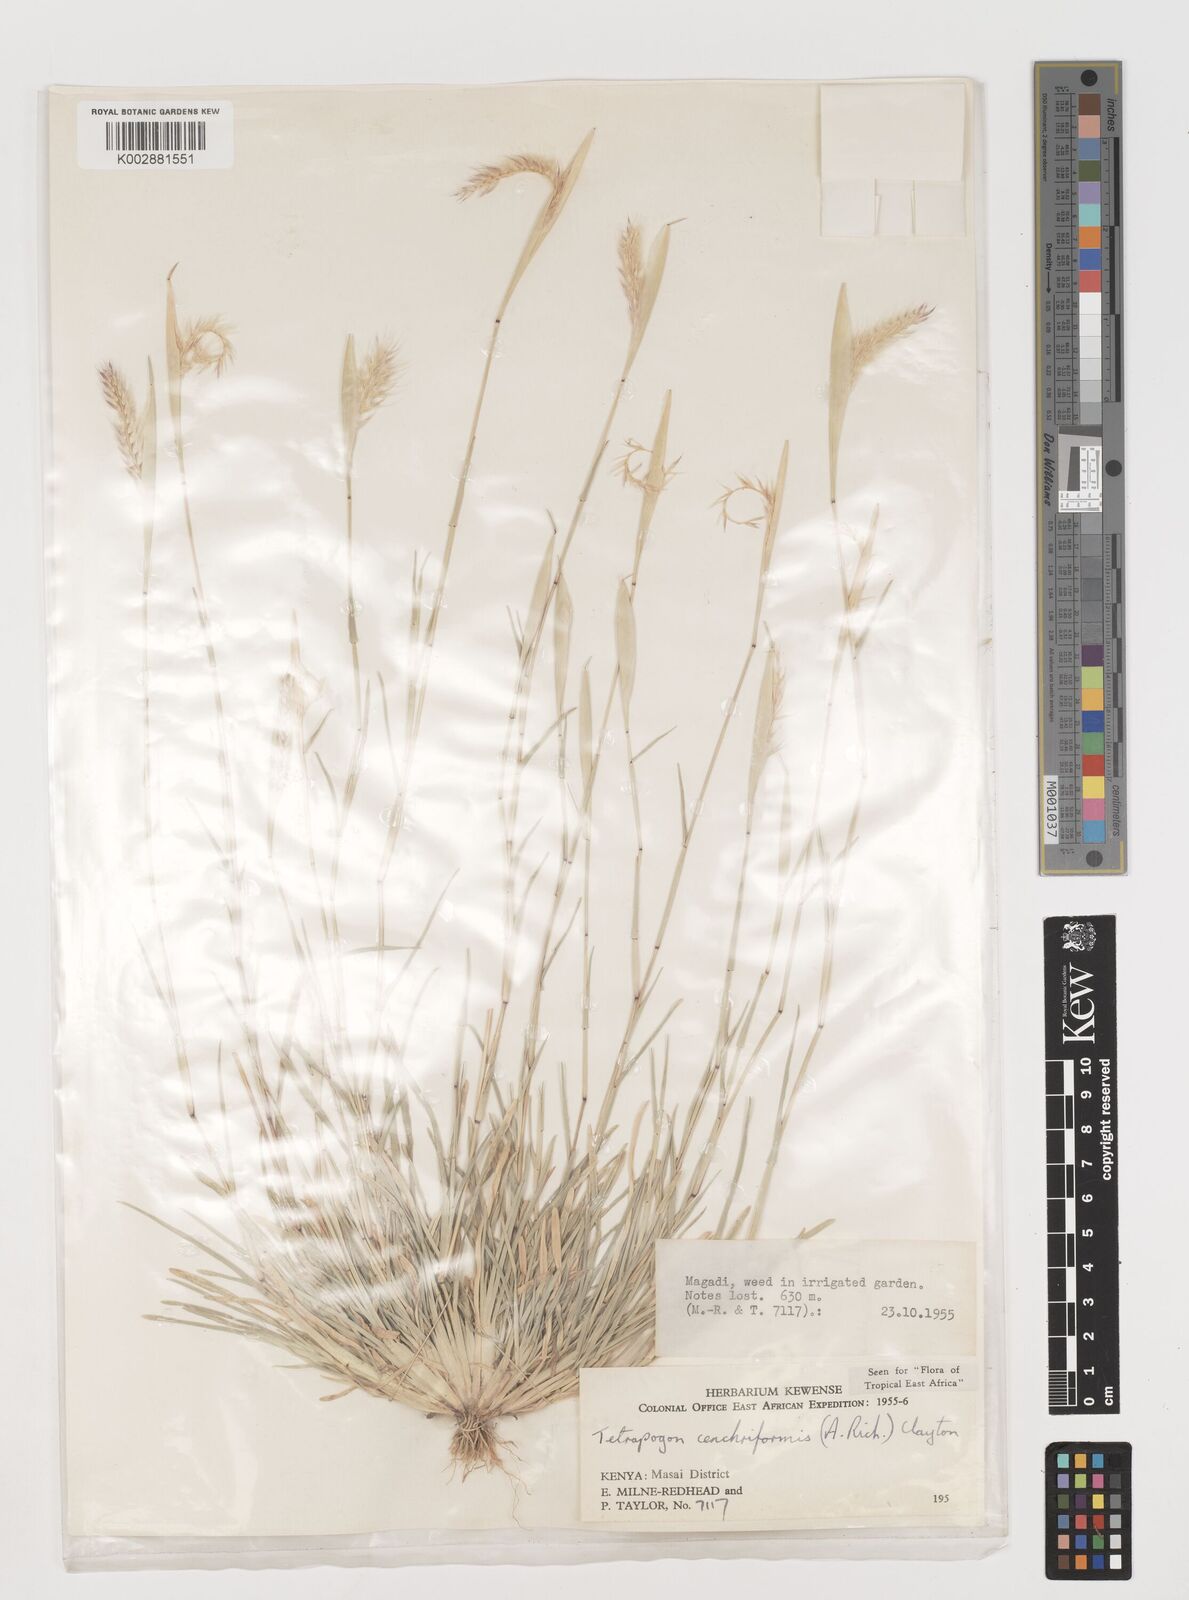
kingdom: Plantae
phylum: Tracheophyta
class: Liliopsida
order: Poales
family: Poaceae
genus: Tetrapogon
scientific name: Tetrapogon cenchriformis
